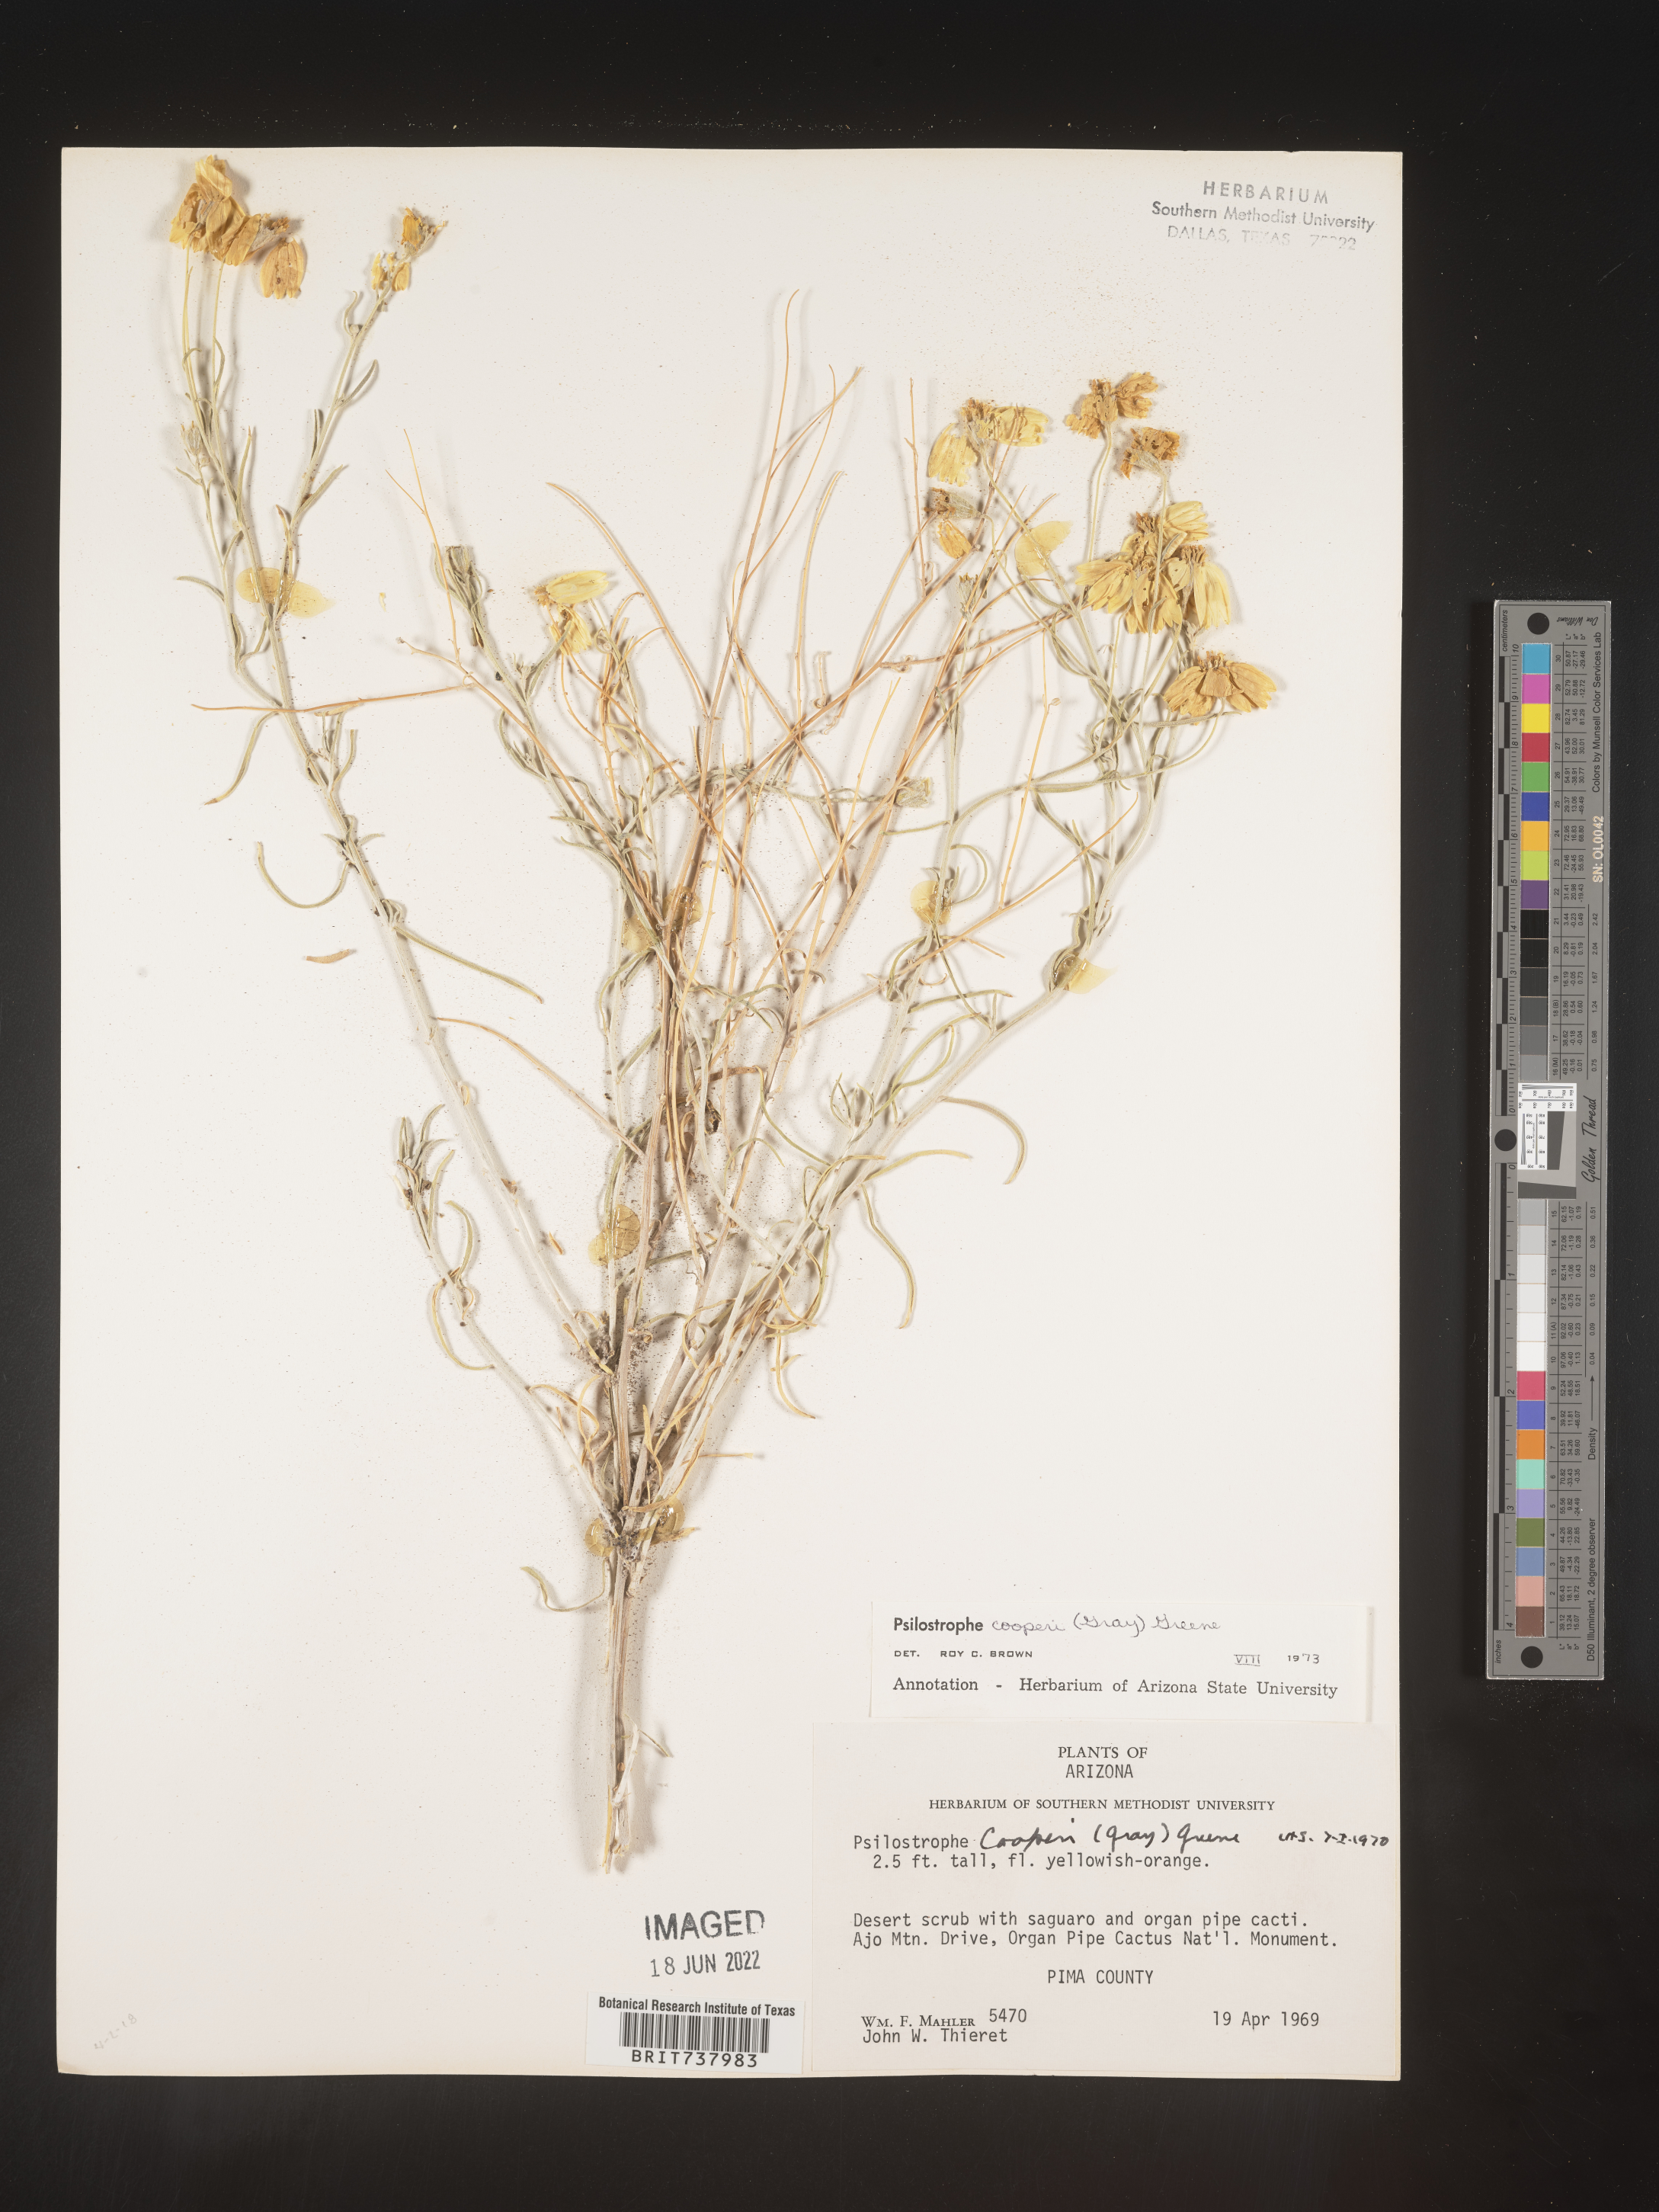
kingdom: Plantae
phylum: Tracheophyta
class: Magnoliopsida
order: Asterales
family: Asteraceae
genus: Psilostrophe
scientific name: Psilostrophe
